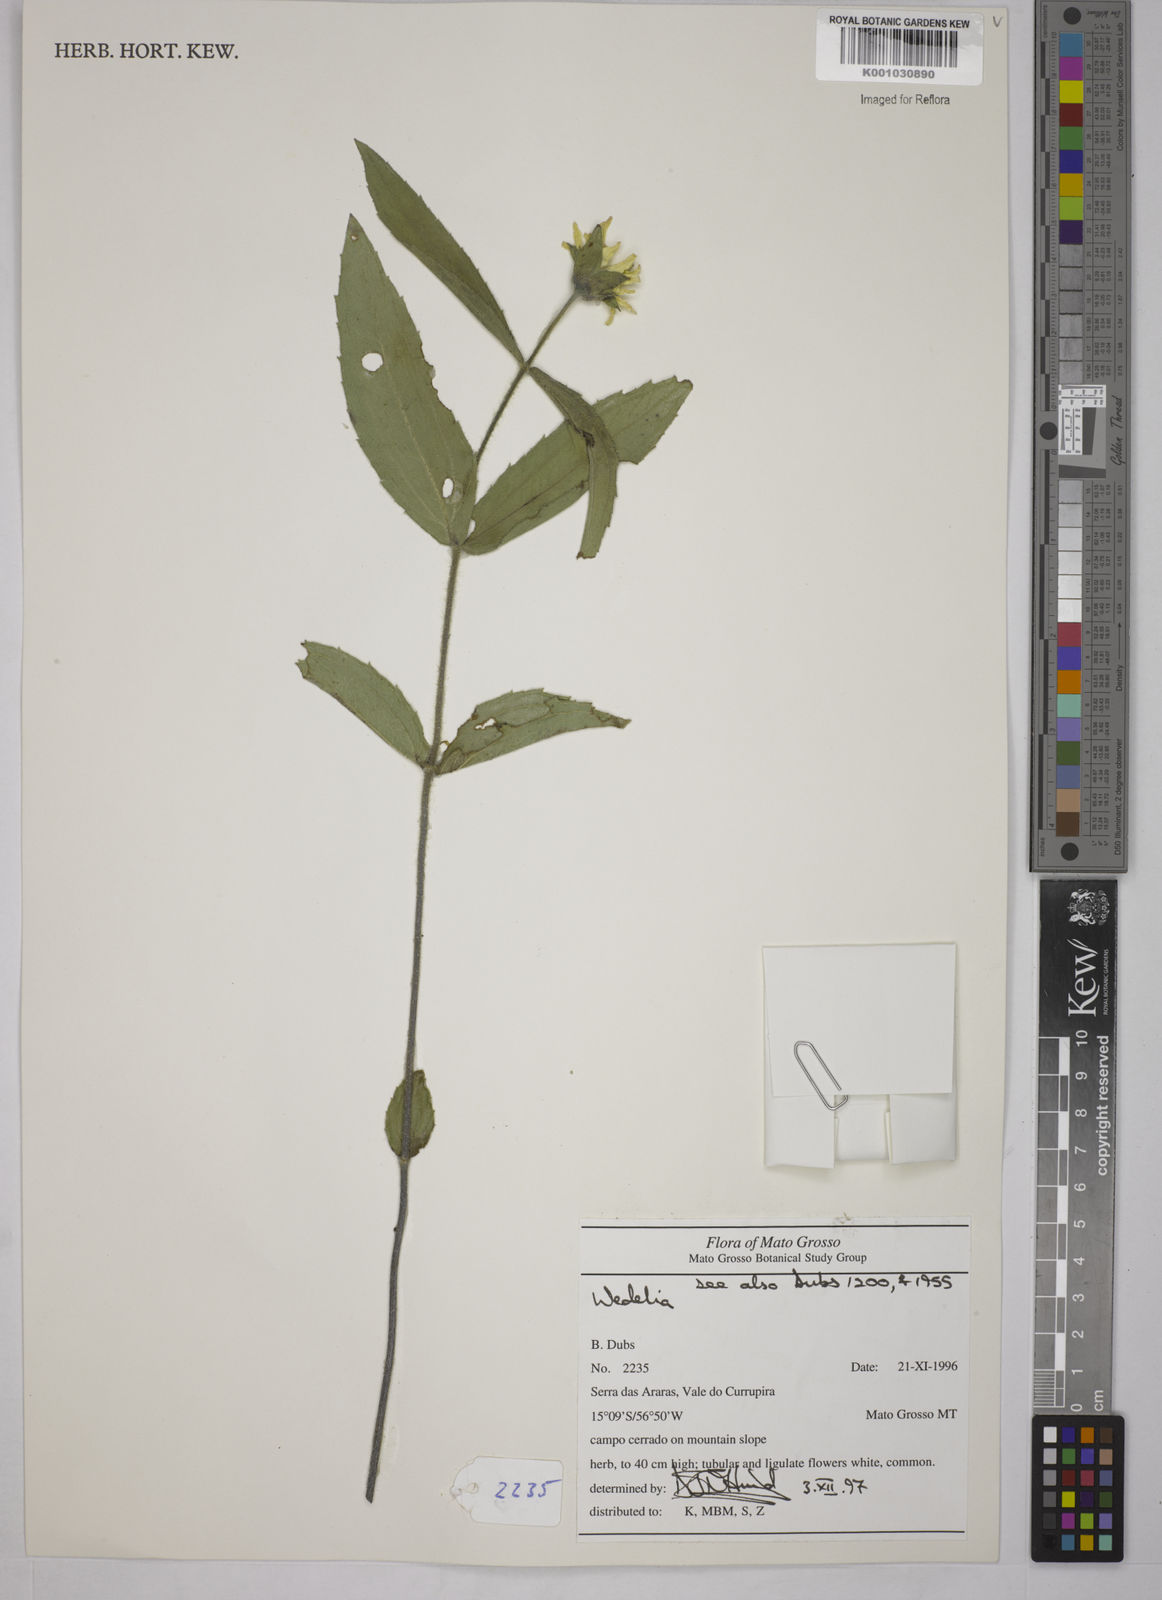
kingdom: Plantae
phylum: Tracheophyta
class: Magnoliopsida
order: Asterales
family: Asteraceae
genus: Wedelia
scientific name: Wedelia
